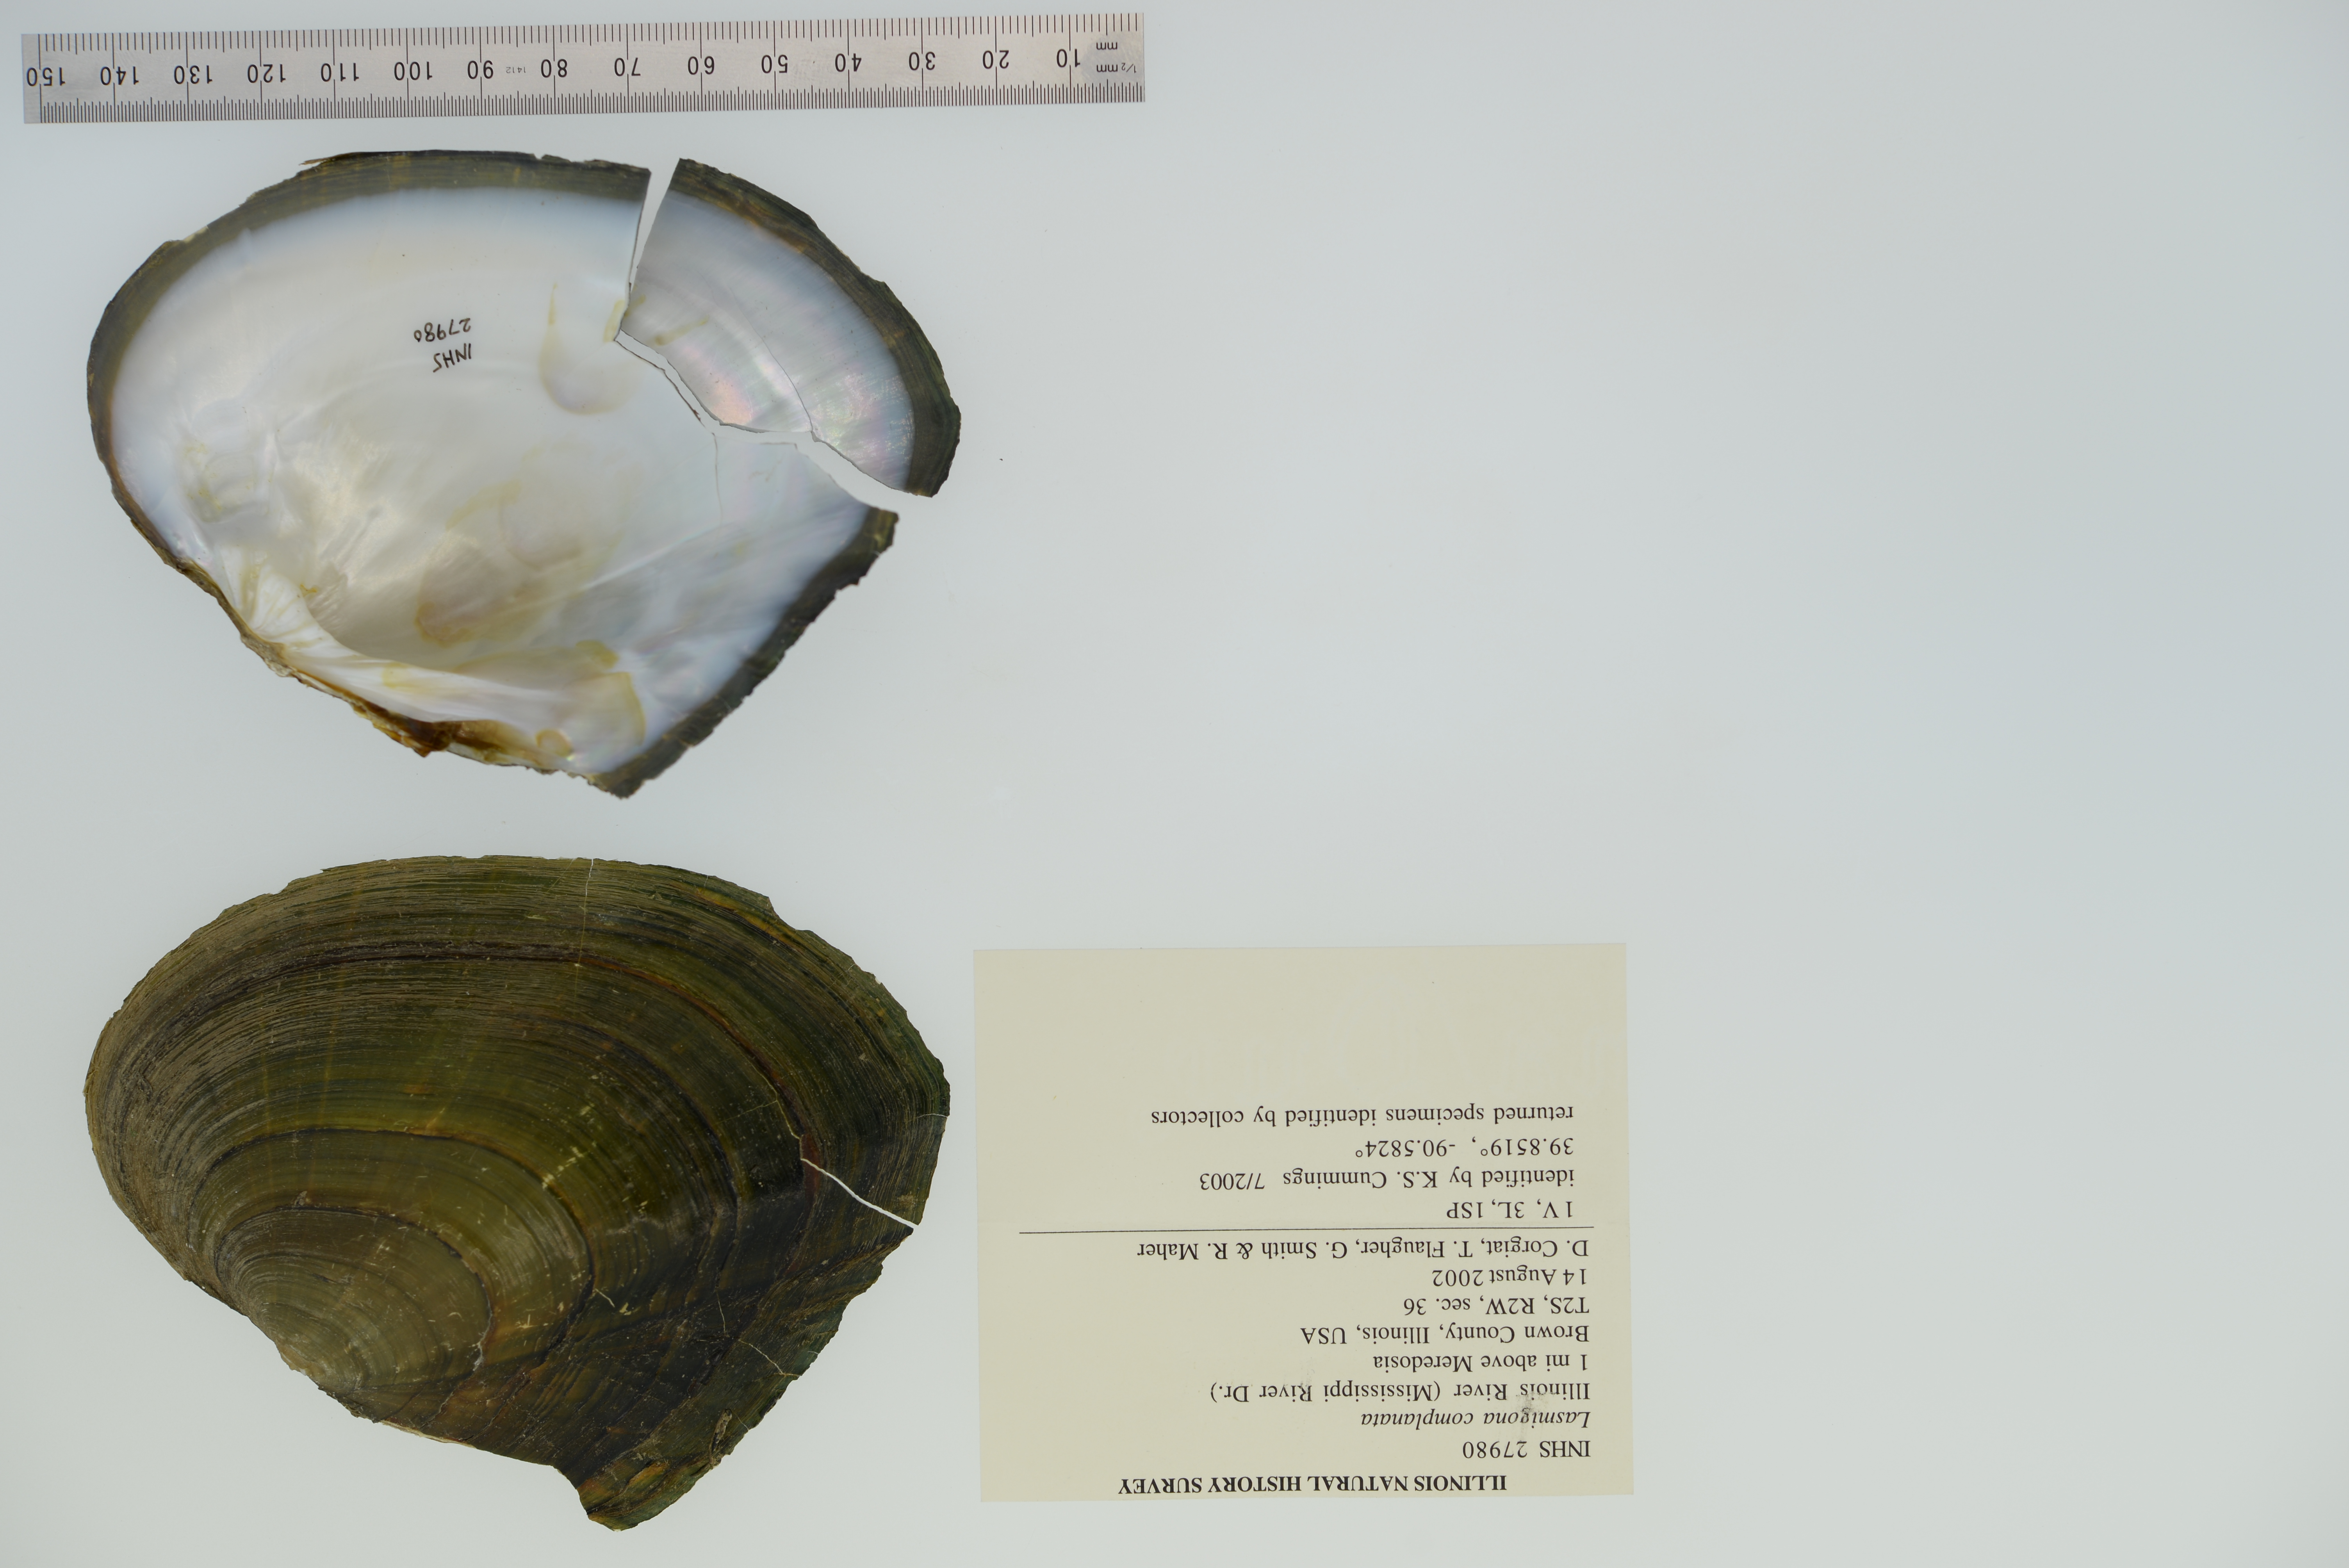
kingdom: Animalia
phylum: Mollusca
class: Bivalvia
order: Unionida
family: Unionidae
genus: Lasmigona
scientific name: Lasmigona complanata
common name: White heelsplitter
